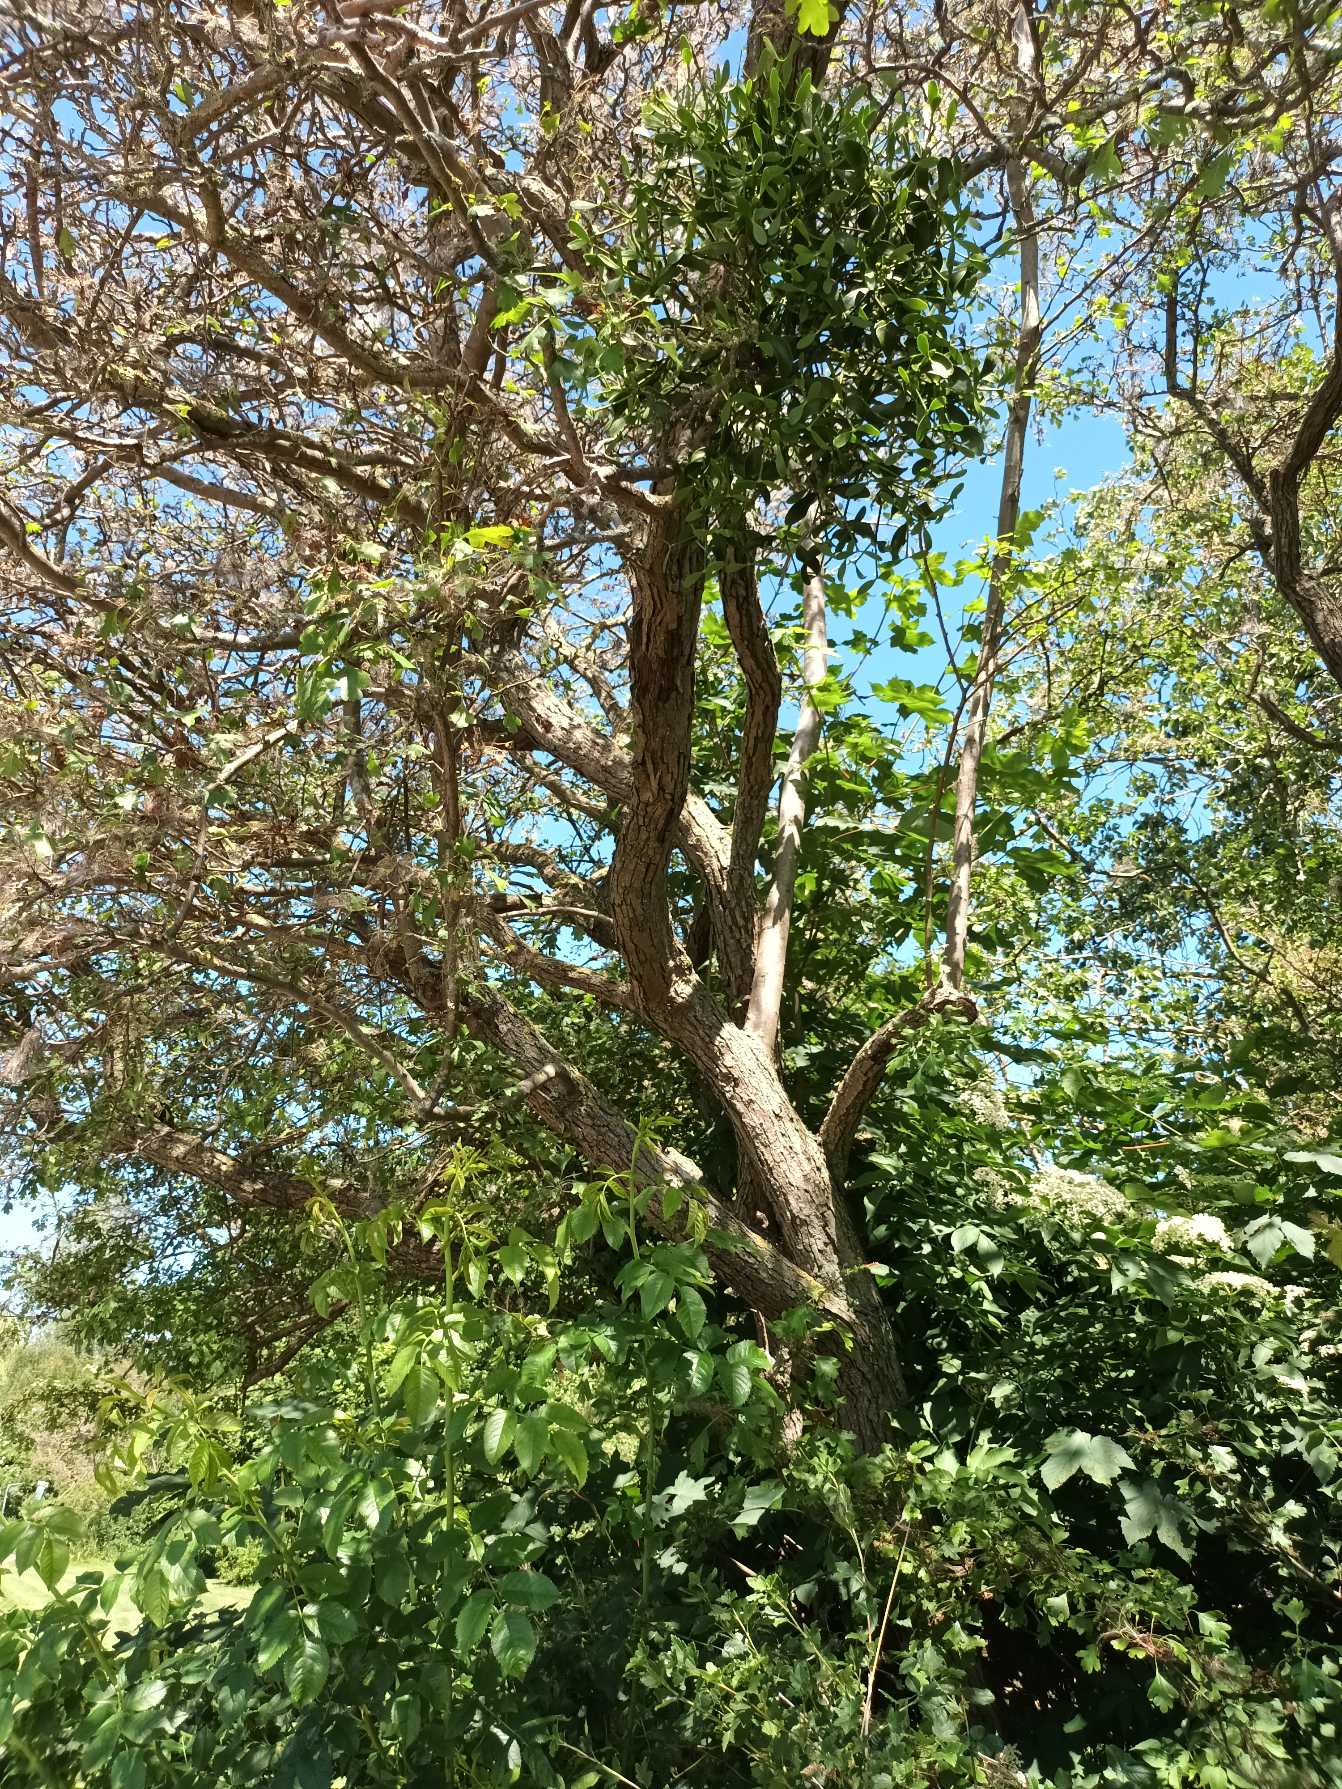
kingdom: Plantae
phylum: Tracheophyta
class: Magnoliopsida
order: Santalales
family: Viscaceae
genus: Viscum
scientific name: Viscum
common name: Misteltenslægten
